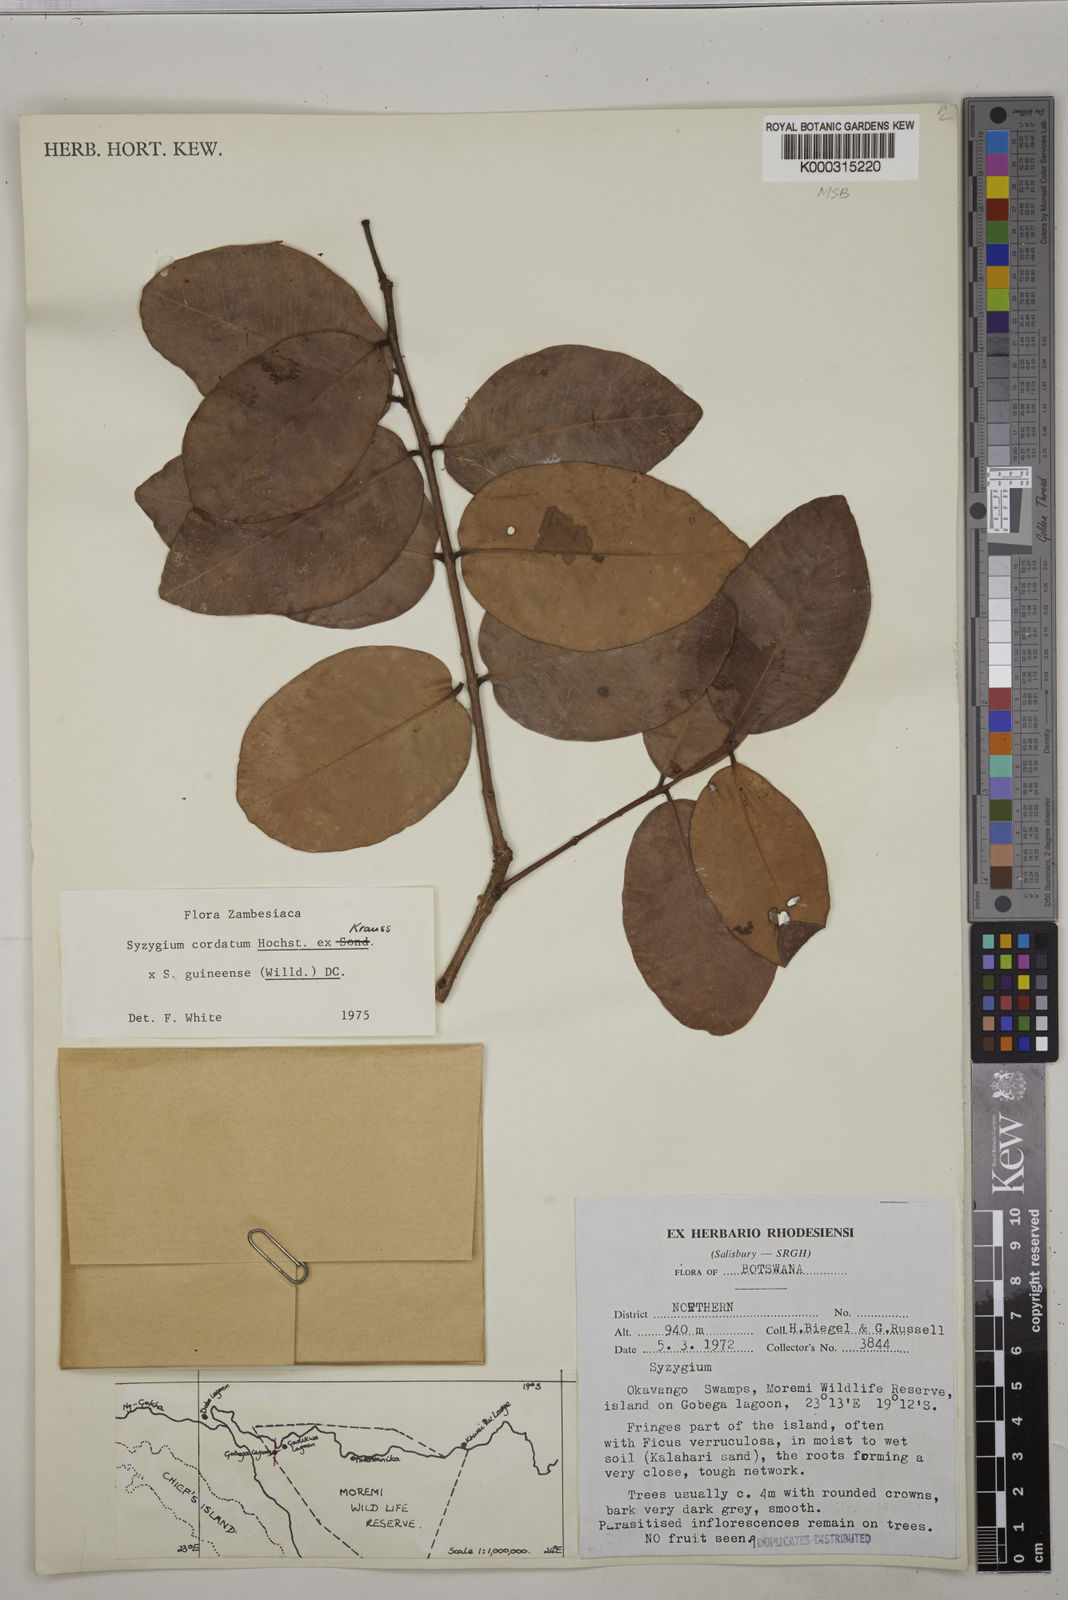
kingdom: Plantae
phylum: Tracheophyta
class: Magnoliopsida
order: Myrtales
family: Myrtaceae
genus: Syzygium
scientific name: Syzygium
